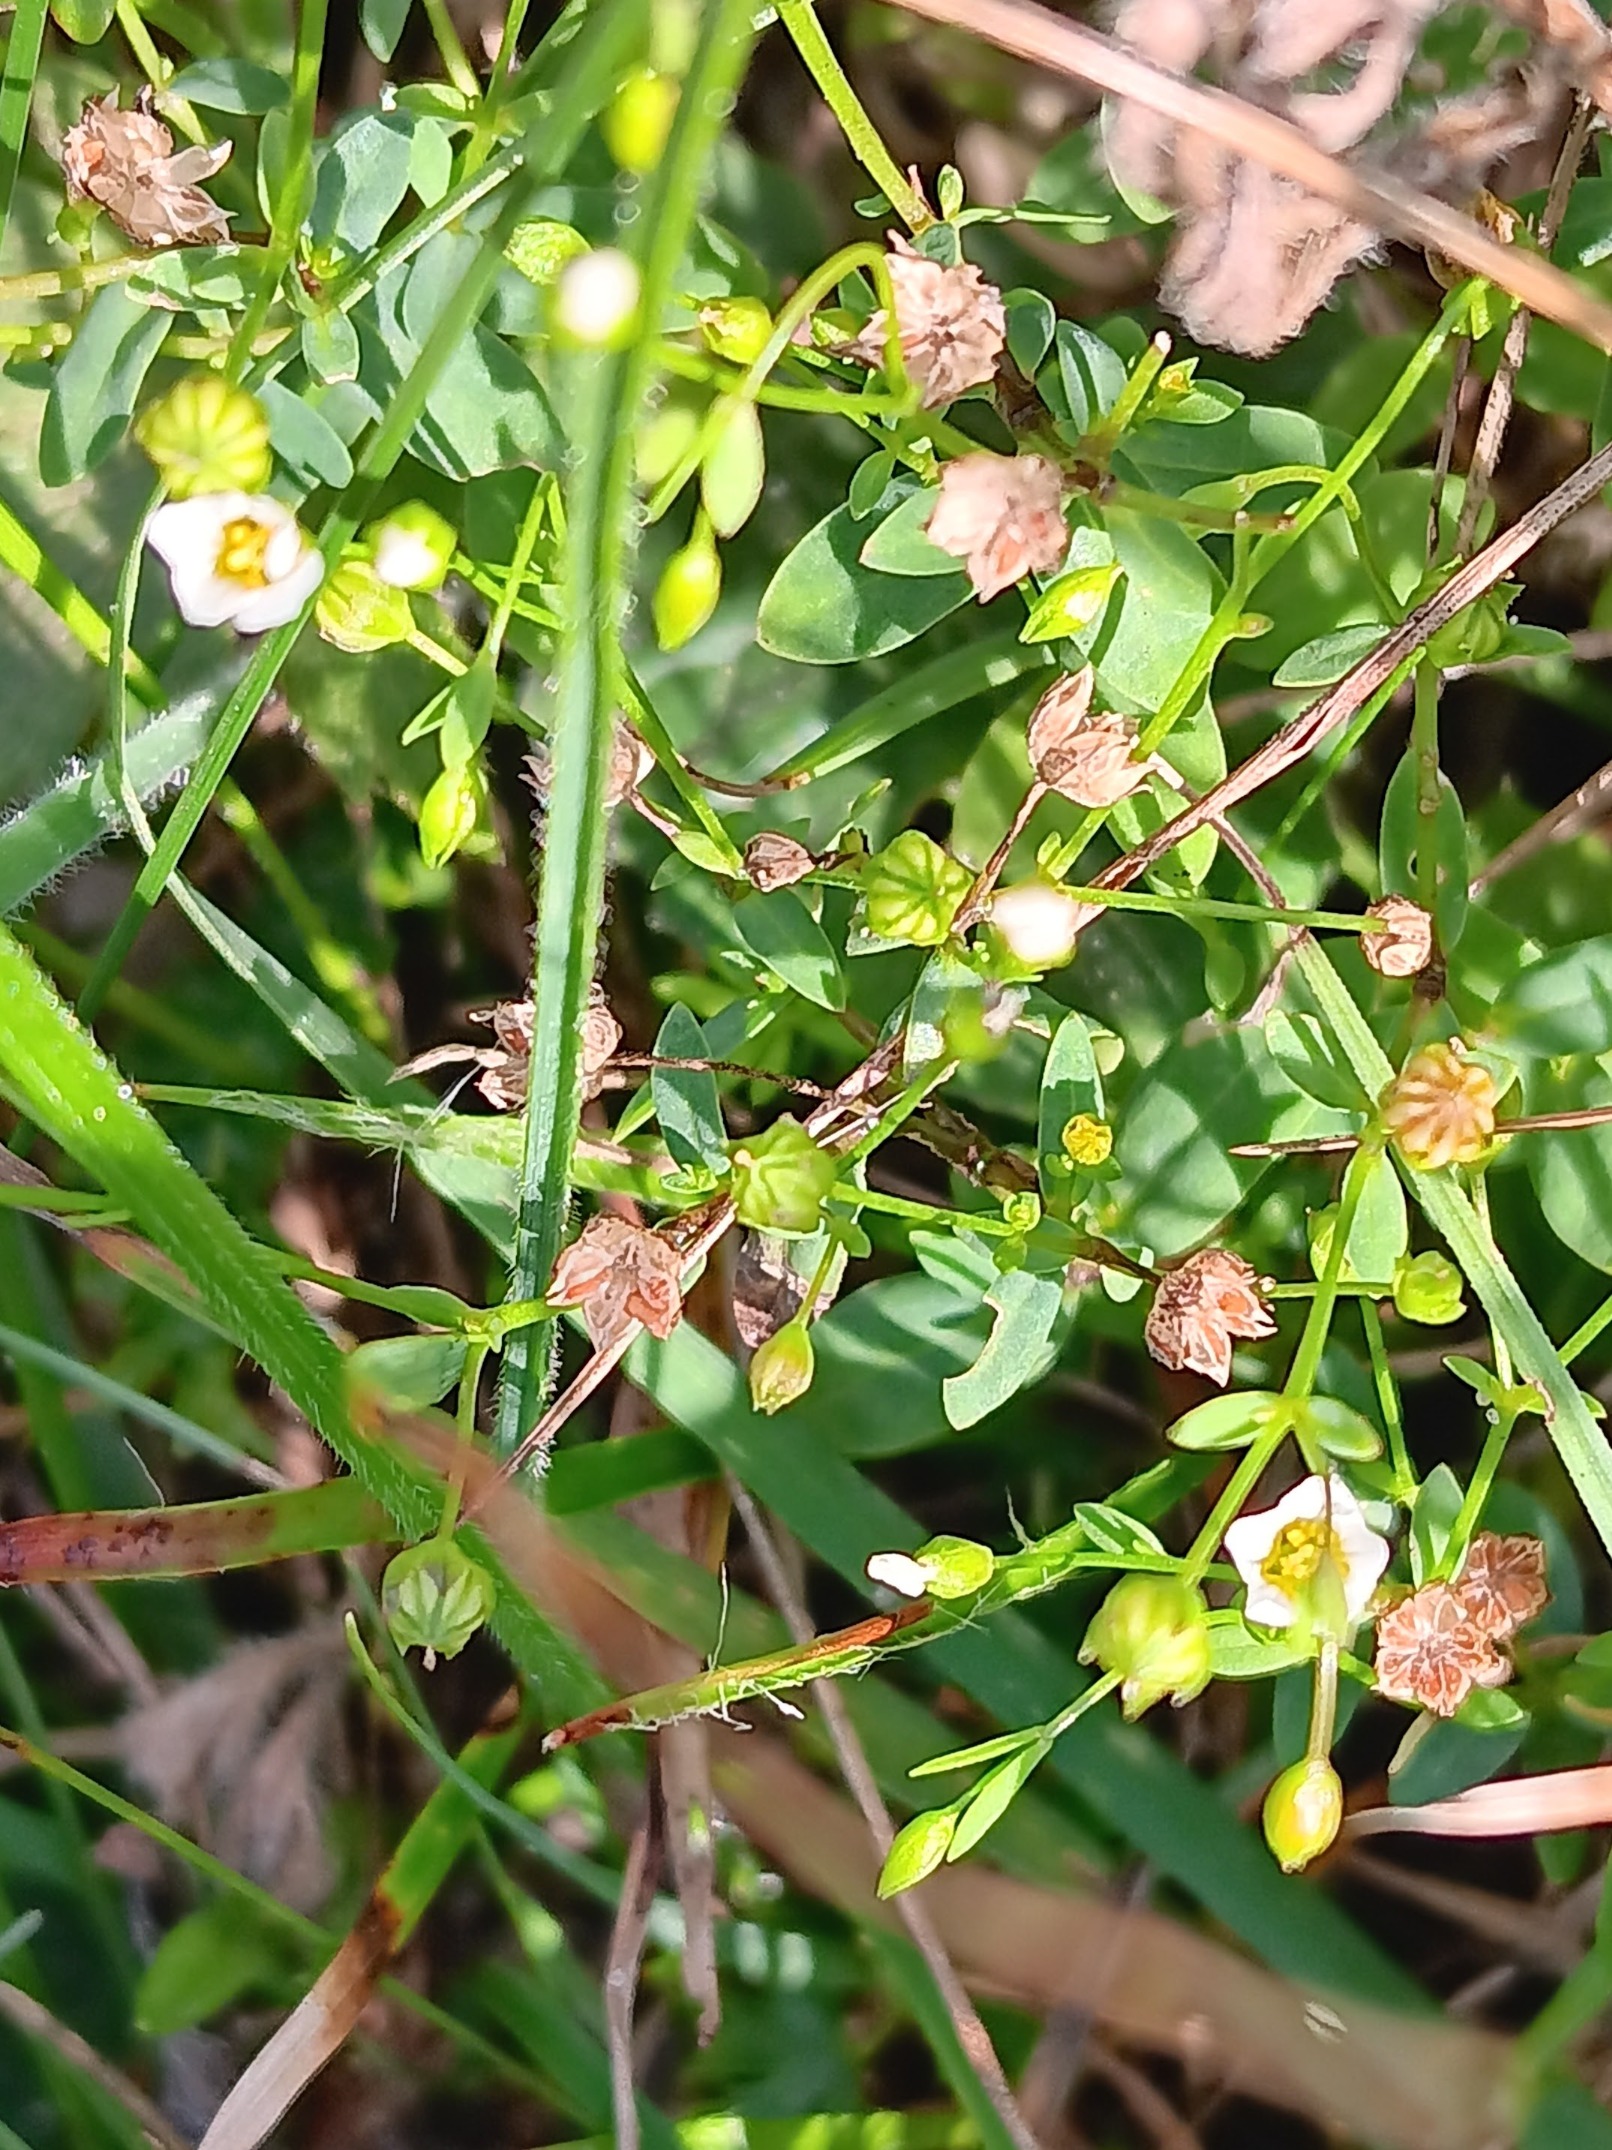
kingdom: Plantae
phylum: Tracheophyta
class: Magnoliopsida
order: Malpighiales
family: Linaceae
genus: Linum
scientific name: Linum catharticum
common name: Vild hør
